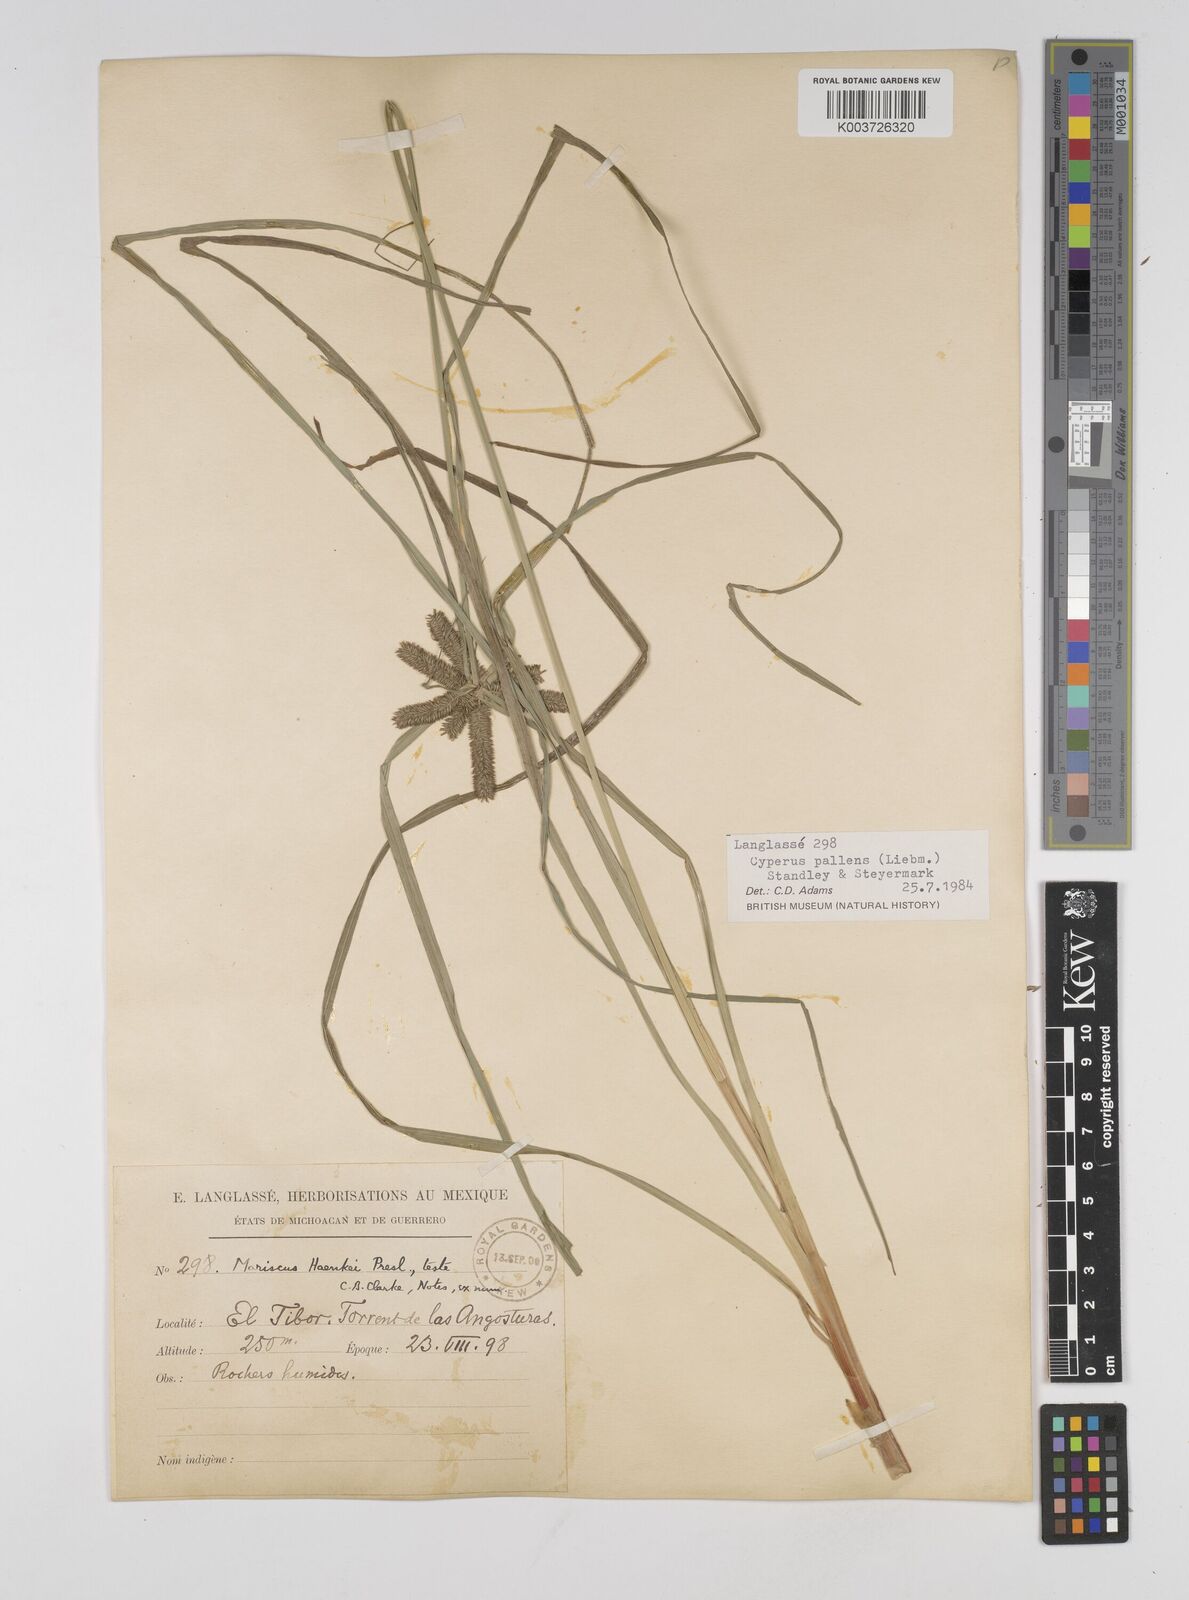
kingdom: Plantae
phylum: Tracheophyta
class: Liliopsida
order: Poales
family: Cyperaceae
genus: Cyperus
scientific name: Cyperus regiomontanus
